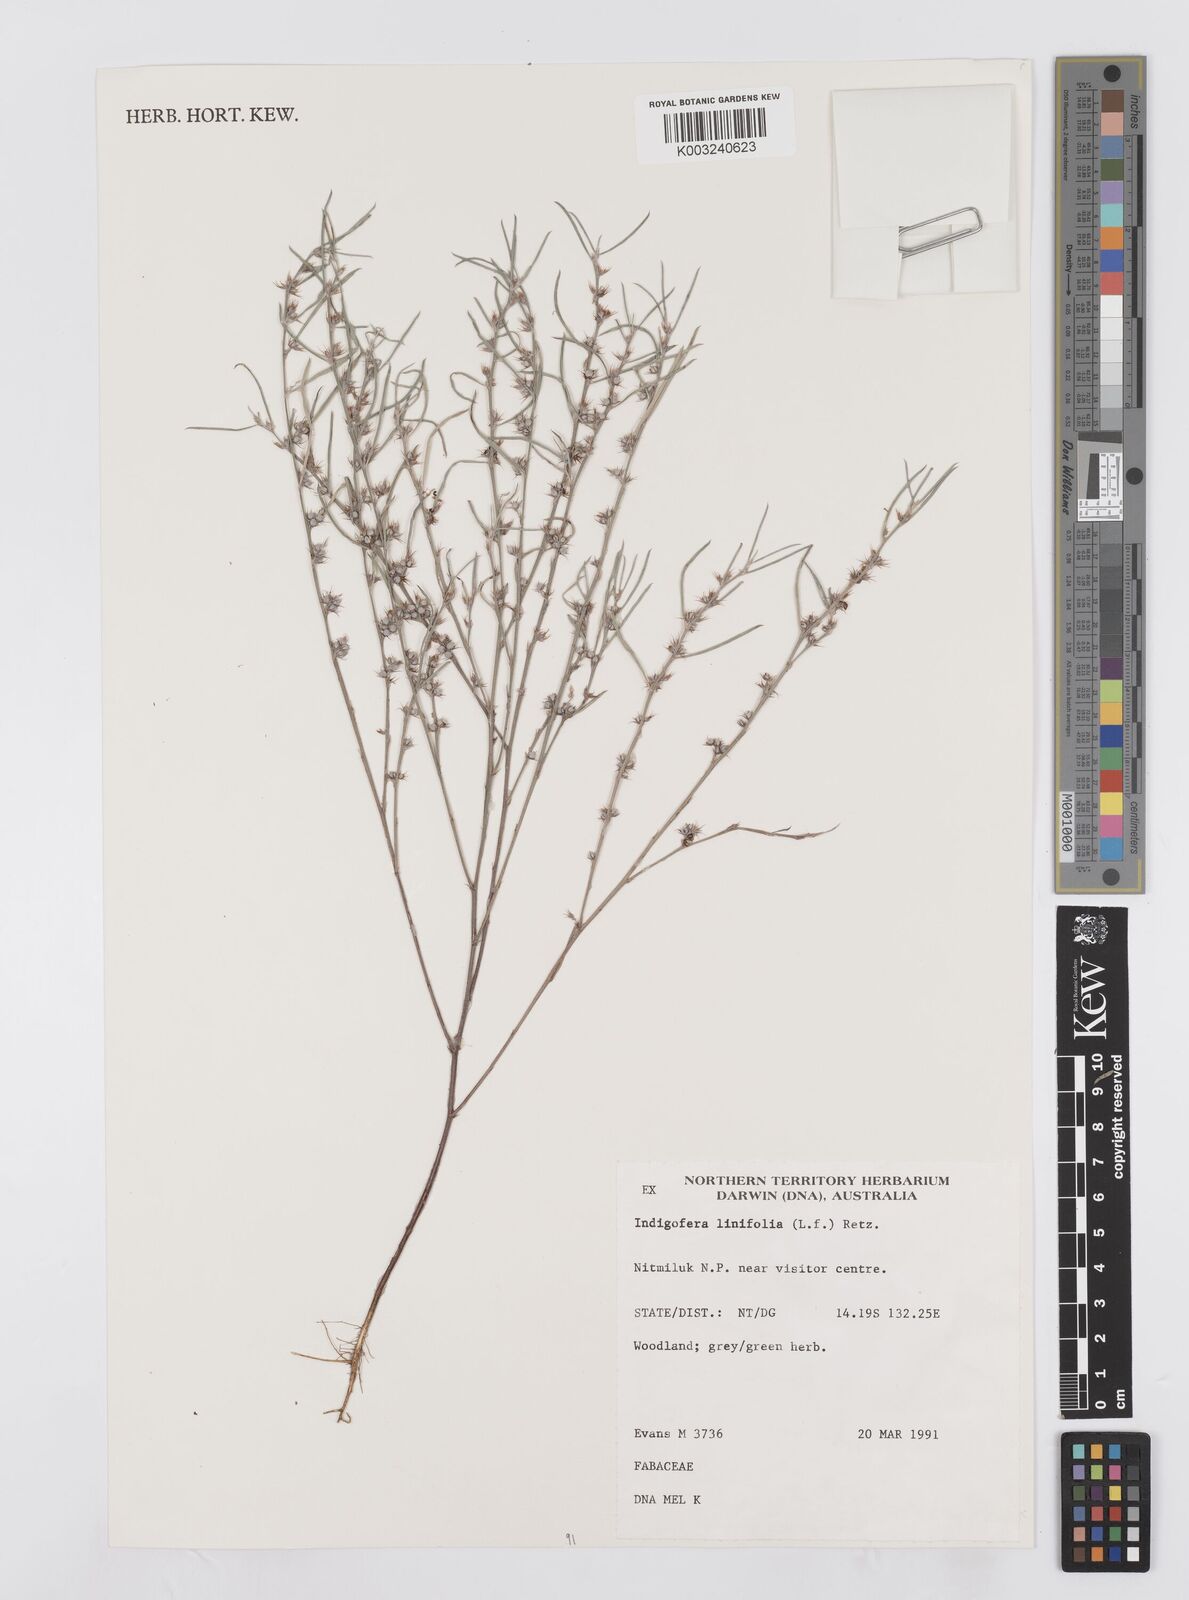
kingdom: Plantae
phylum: Tracheophyta
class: Magnoliopsida
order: Fabales
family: Fabaceae
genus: Indigofera
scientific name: Indigofera linifolia
